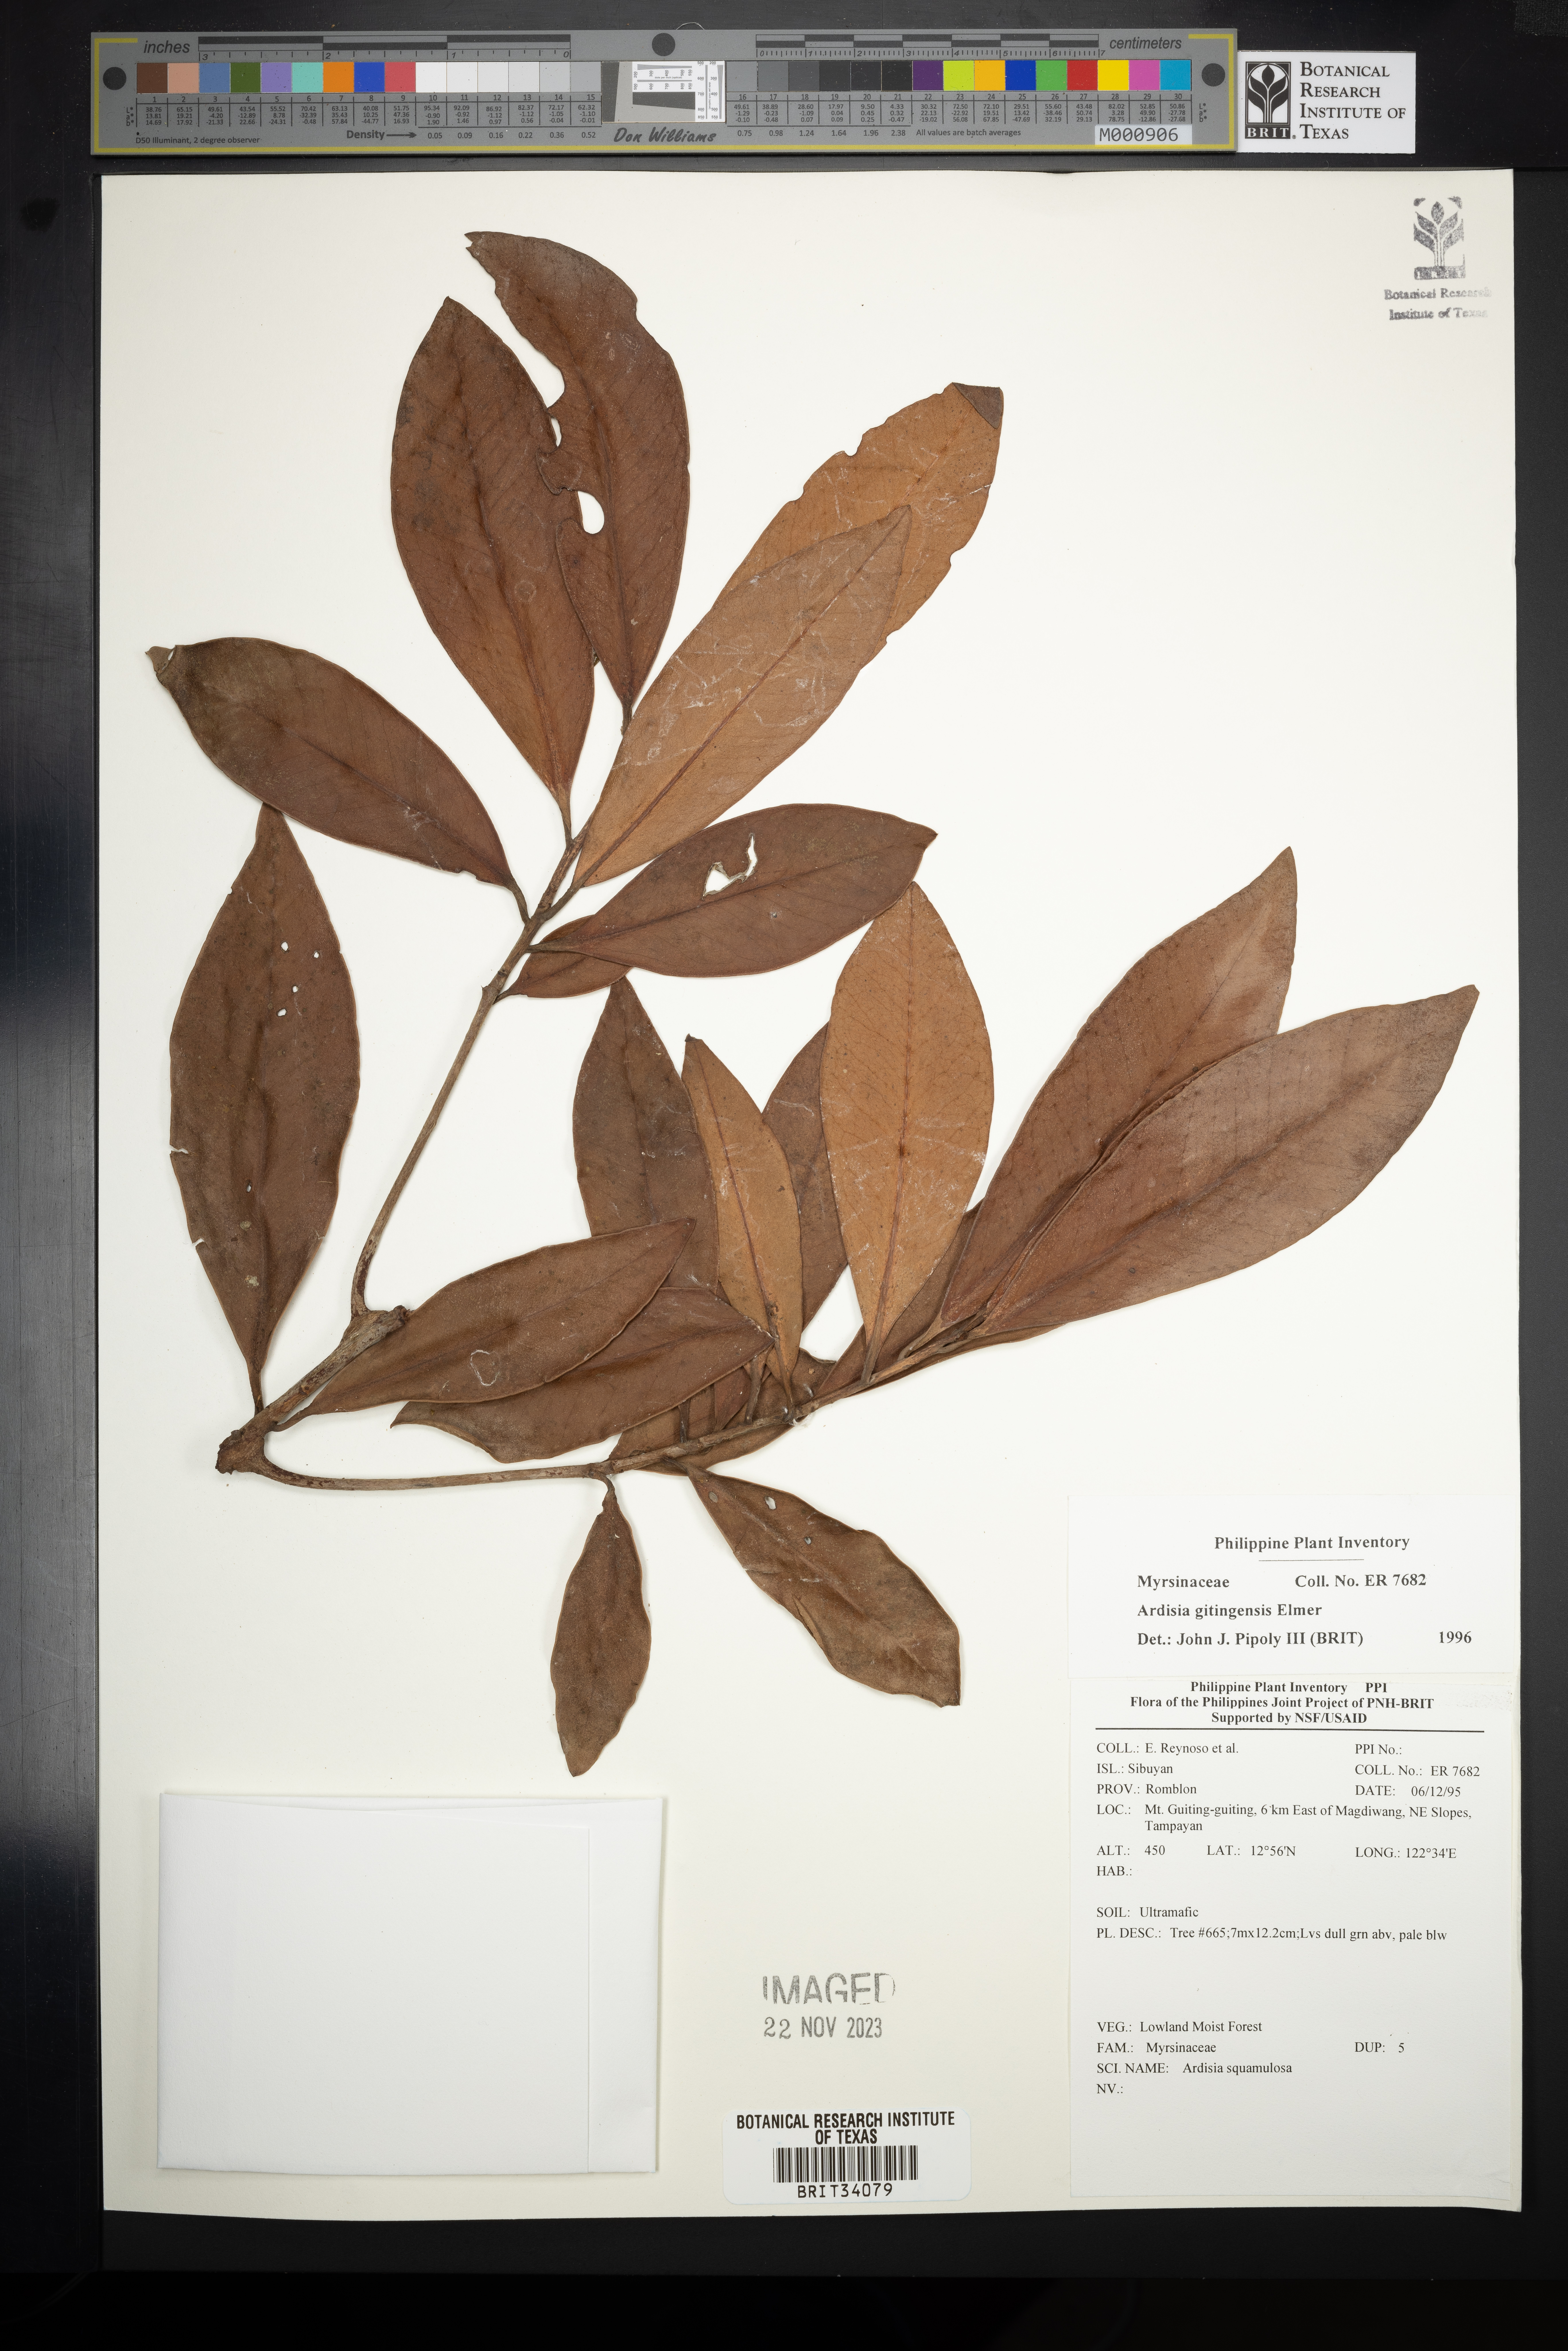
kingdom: Plantae
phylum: Tracheophyta
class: Magnoliopsida
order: Ericales
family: Primulaceae
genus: Ardisia
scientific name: Ardisia darlingii
